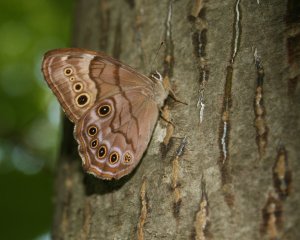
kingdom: Animalia
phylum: Arthropoda
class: Insecta
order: Lepidoptera
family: Nymphalidae
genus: Lethe
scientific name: Lethe anthedon
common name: Northern Pearly-Eye
